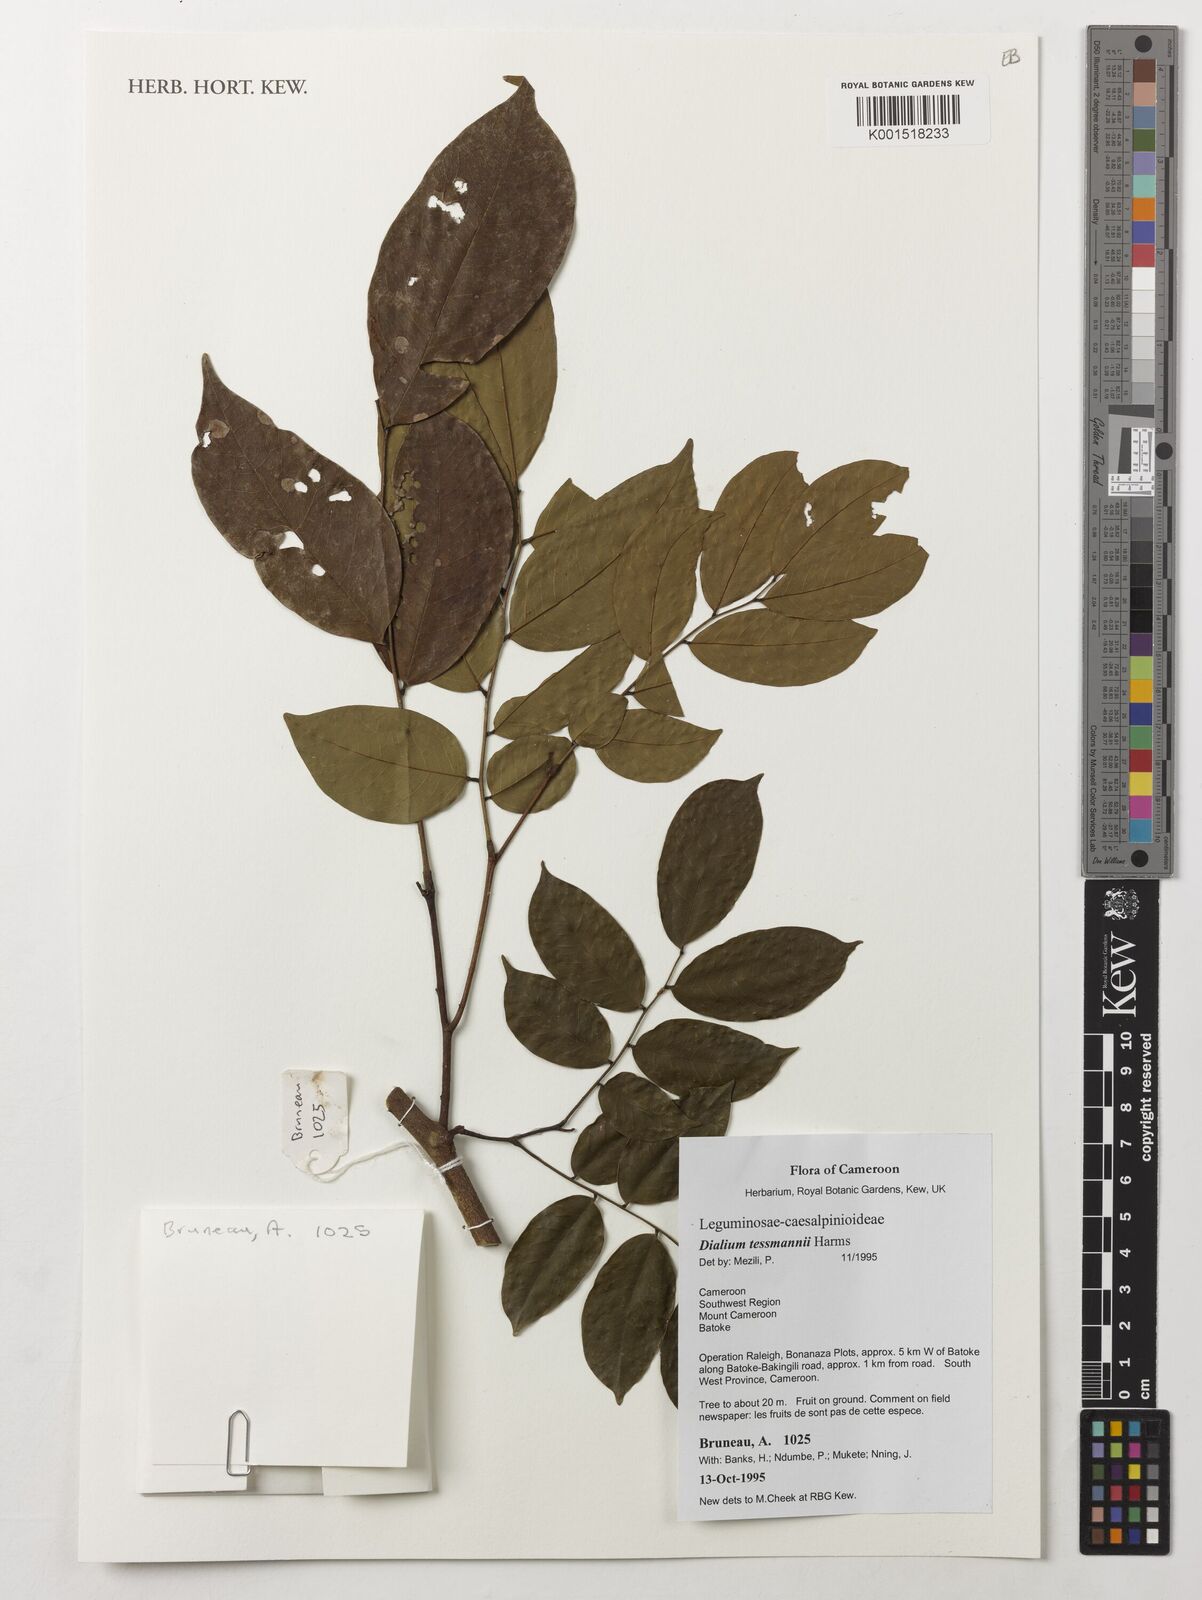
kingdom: Plantae
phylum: Tracheophyta
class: Magnoliopsida
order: Fabales
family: Fabaceae
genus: Dialium
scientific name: Dialium tessmannii
